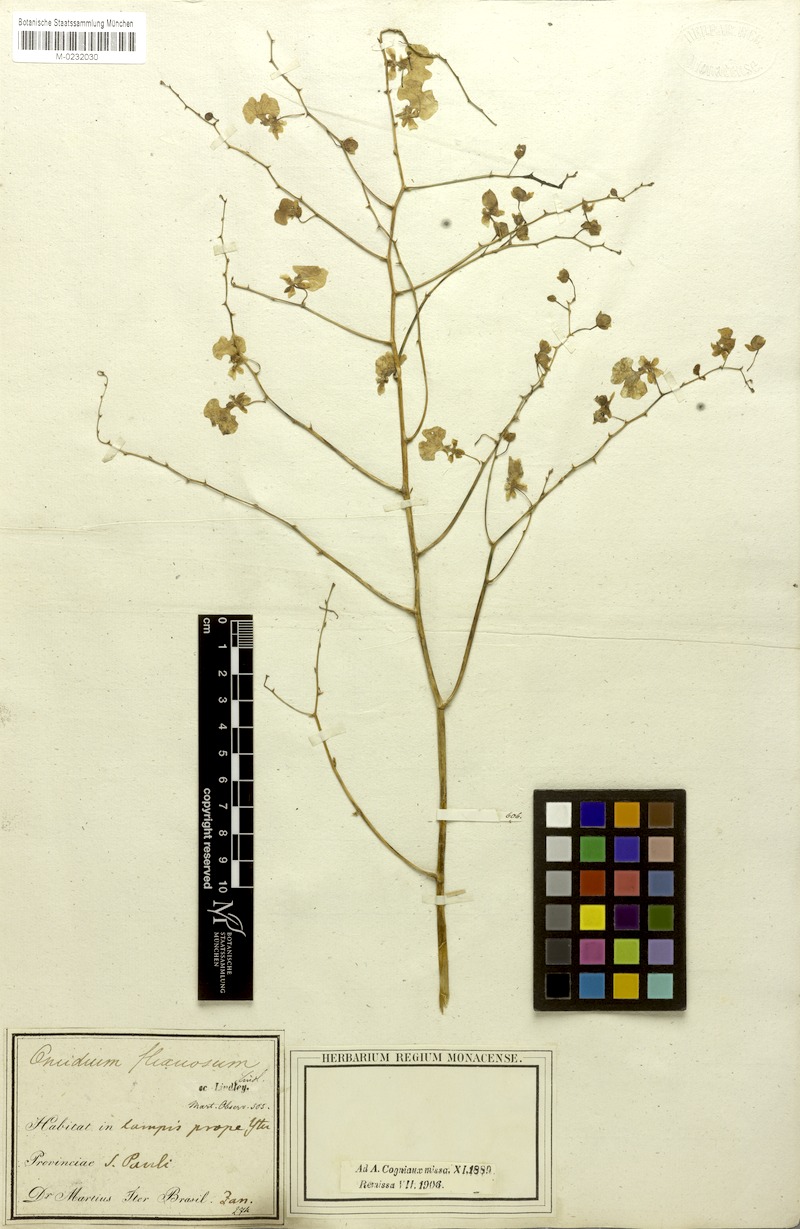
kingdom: Plantae
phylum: Tracheophyta
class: Liliopsida
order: Asparagales
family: Orchidaceae
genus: Cyrtochilum
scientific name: Cyrtochilum cimiciferum
